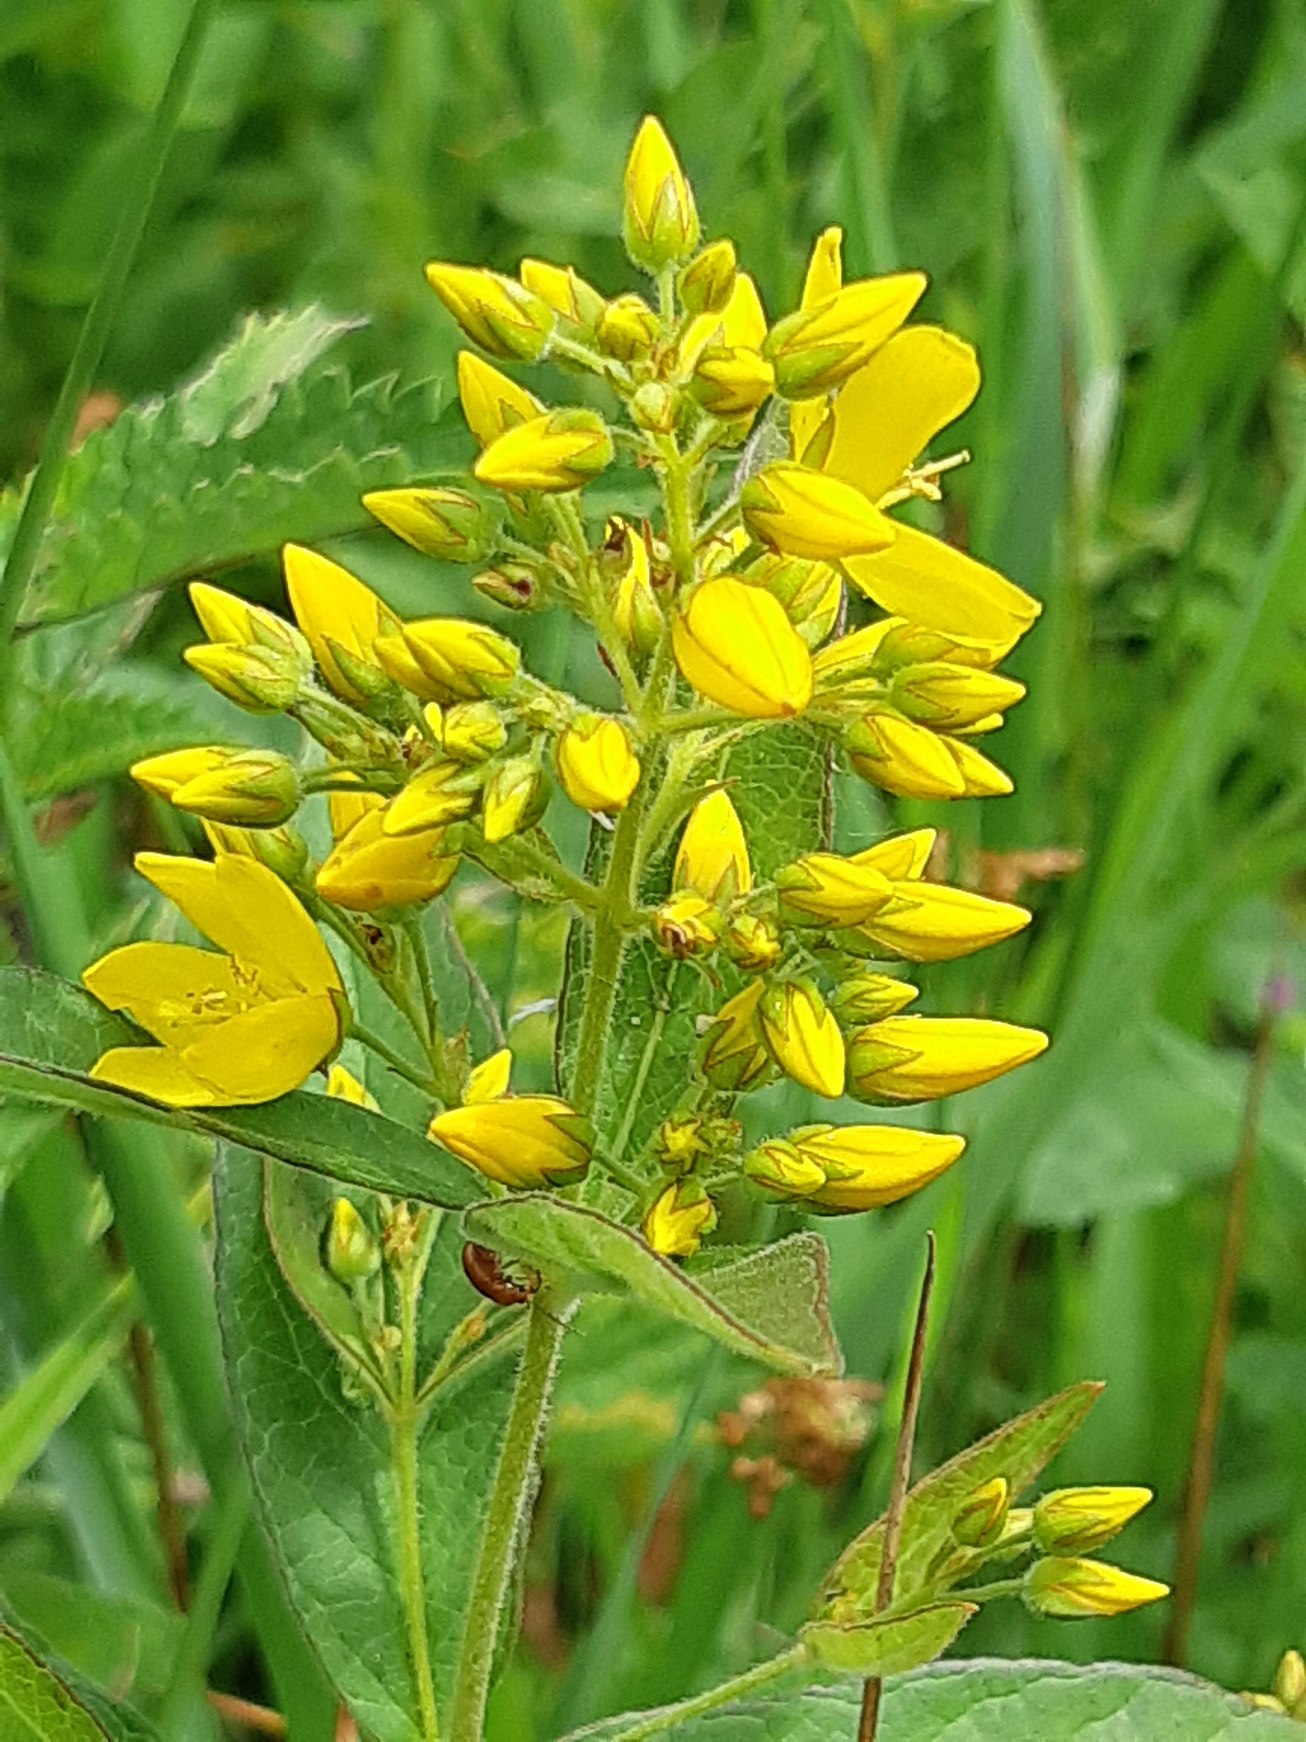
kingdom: Plantae
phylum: Tracheophyta
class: Magnoliopsida
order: Ericales
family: Primulaceae
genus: Lysimachia
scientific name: Lysimachia vulgaris
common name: Almindelig fredløs
